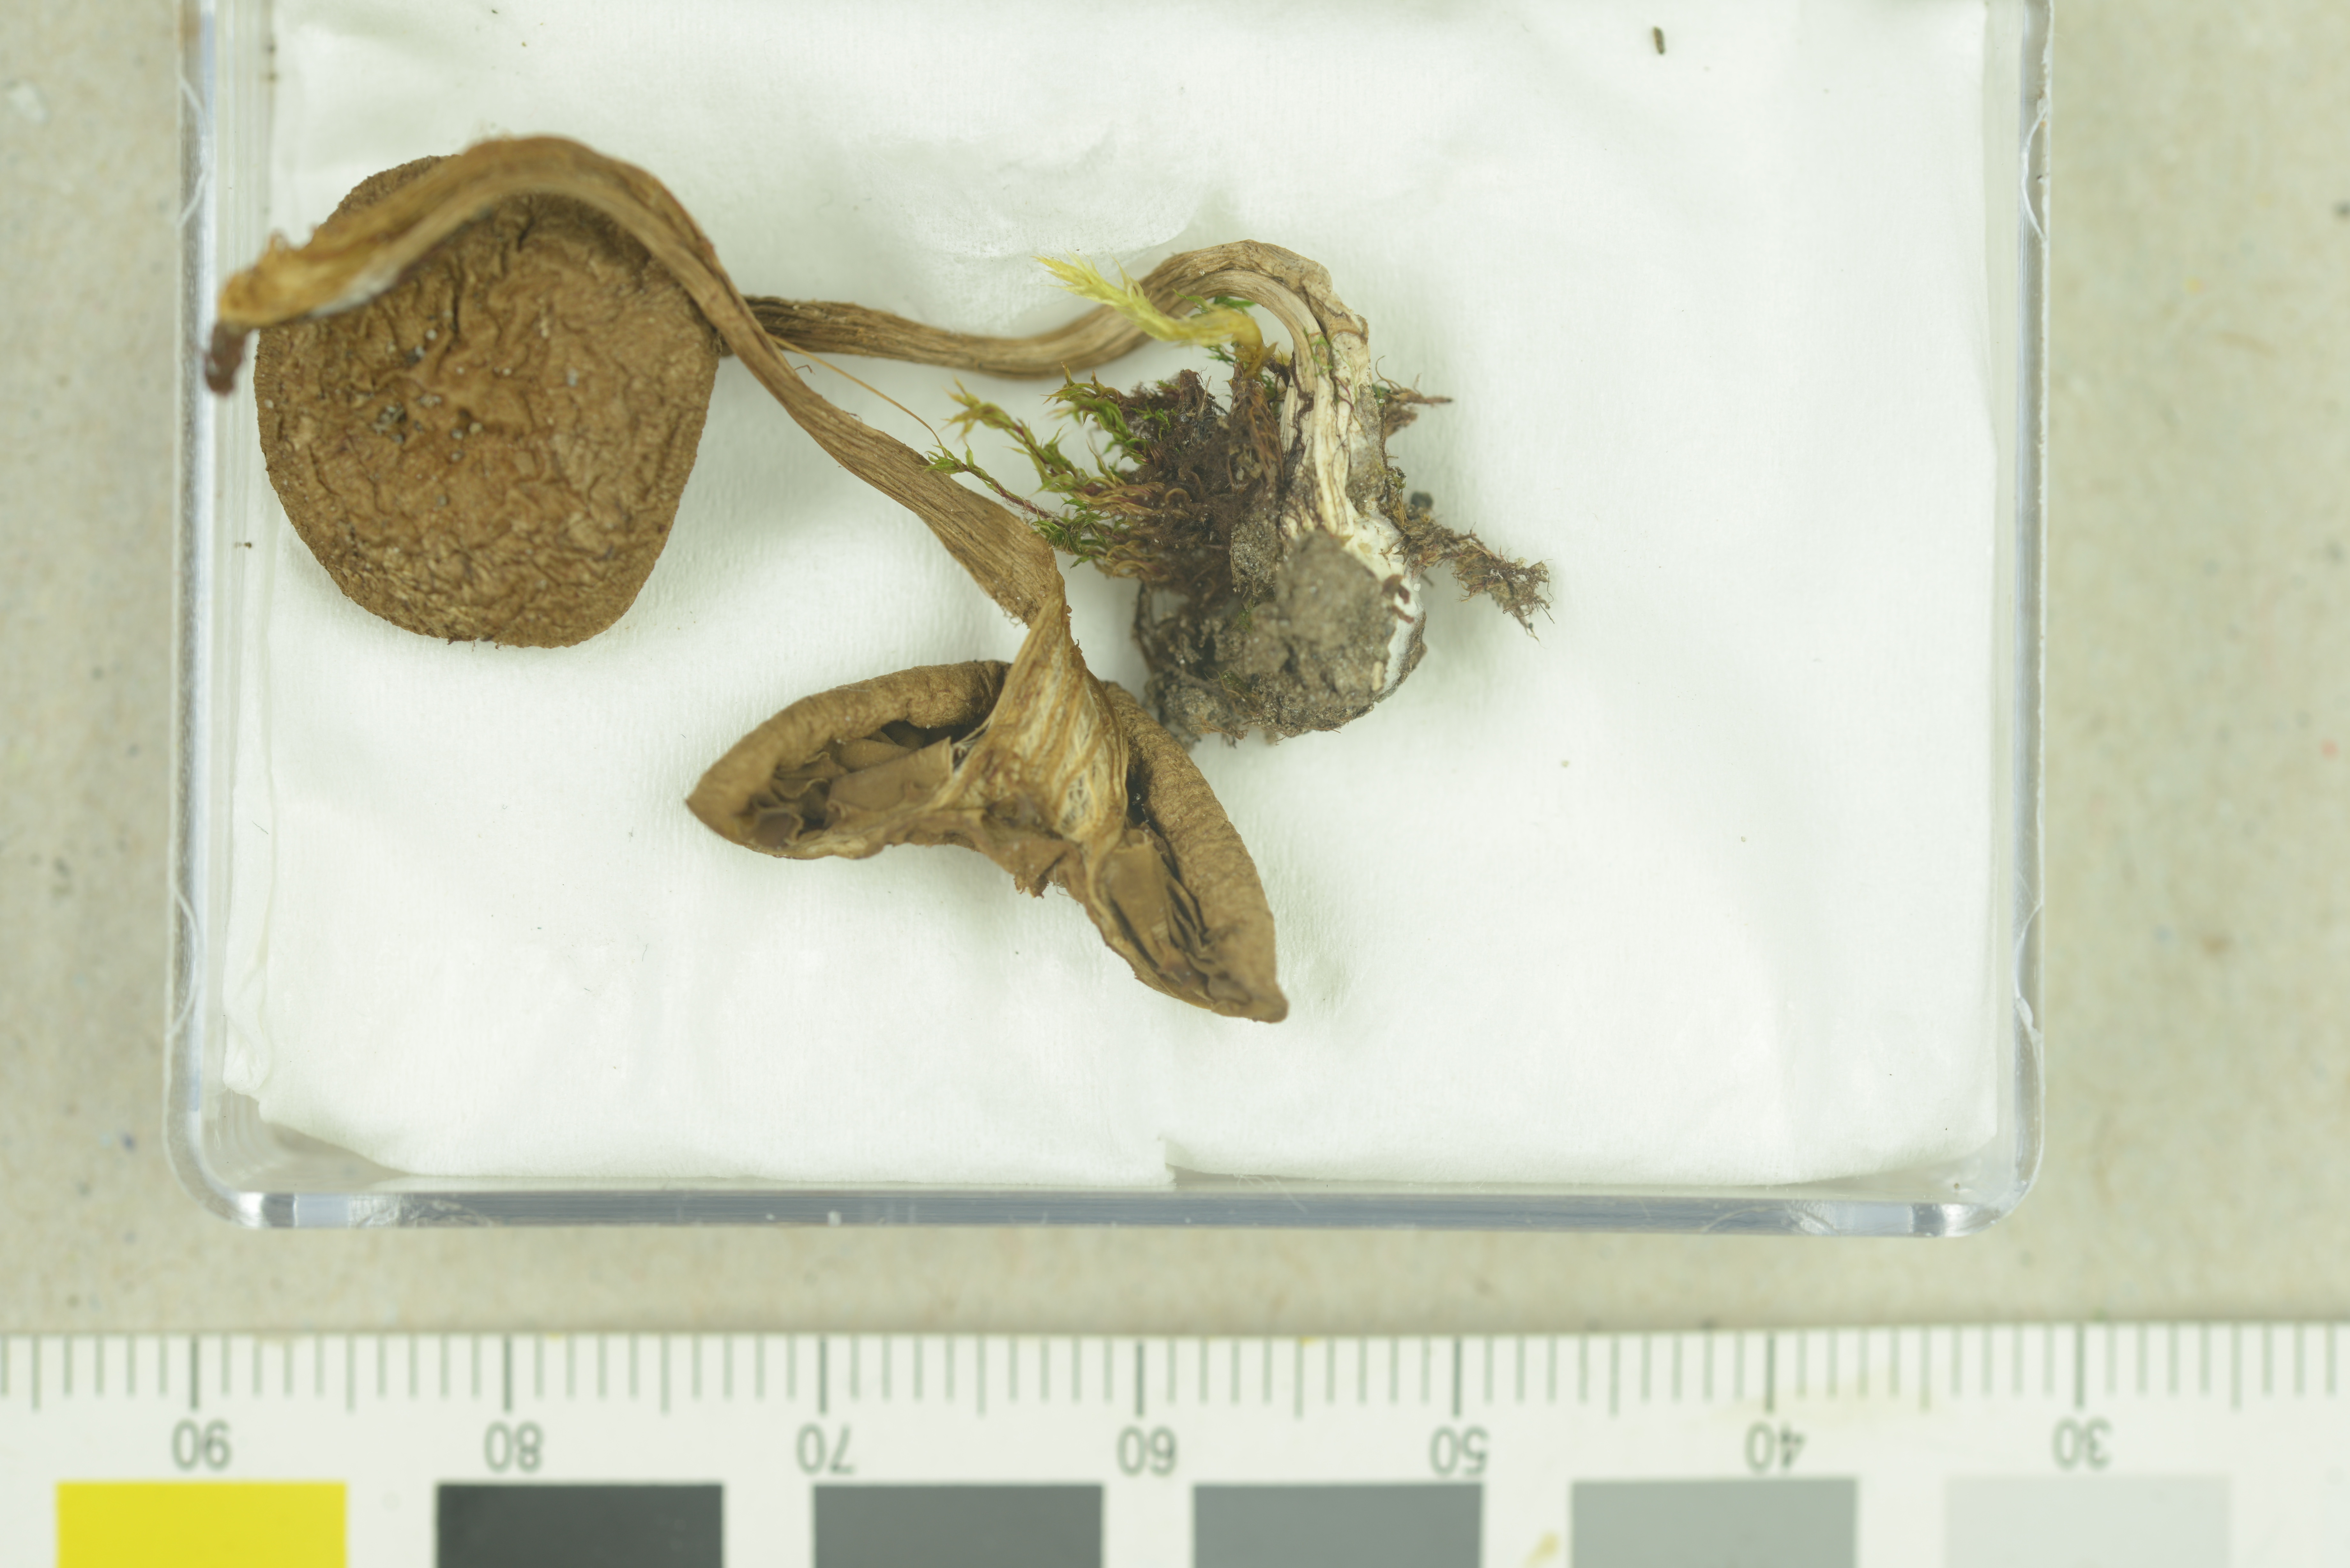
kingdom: Fungi
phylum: Basidiomycota
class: Agaricomycetes
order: Agaricales
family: Inocybaceae
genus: Mallocybe
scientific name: Mallocybe leucoloma
